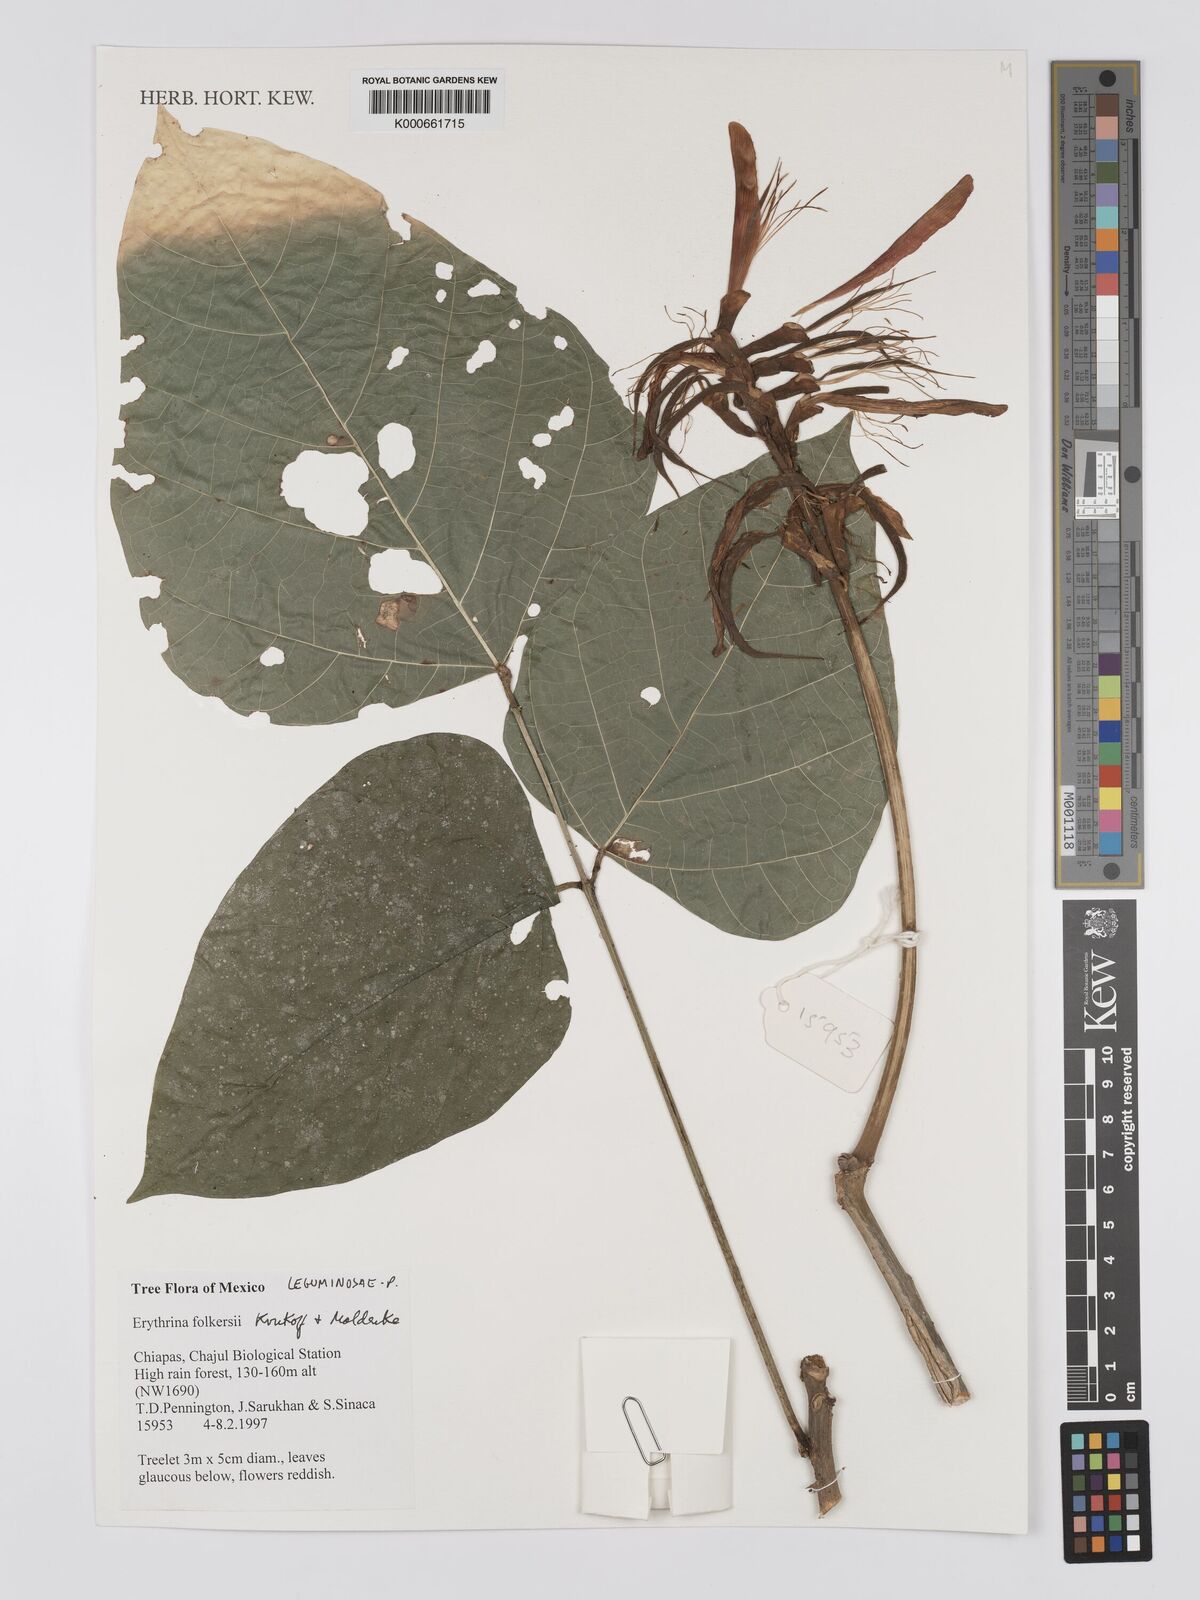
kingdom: Plantae
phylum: Tracheophyta
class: Magnoliopsida
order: Fabales
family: Fabaceae
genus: Erythrina
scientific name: Erythrina folkersii
